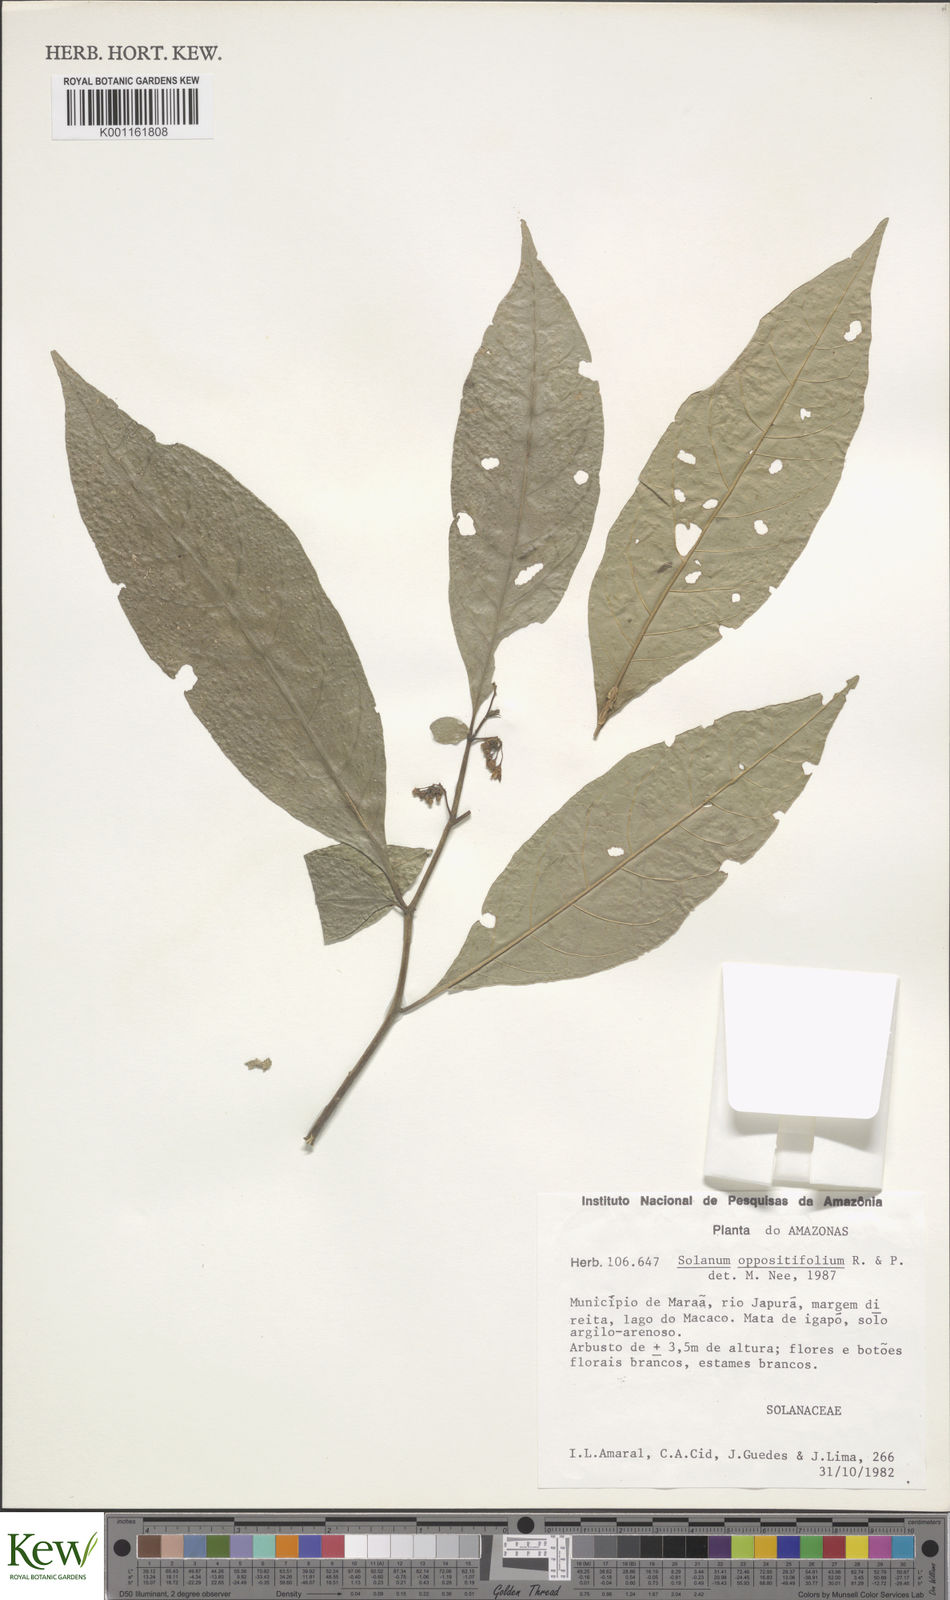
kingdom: Plantae
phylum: Tracheophyta
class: Magnoliopsida
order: Solanales
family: Solanaceae
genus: Solanum
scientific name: Solanum oppositifolium
